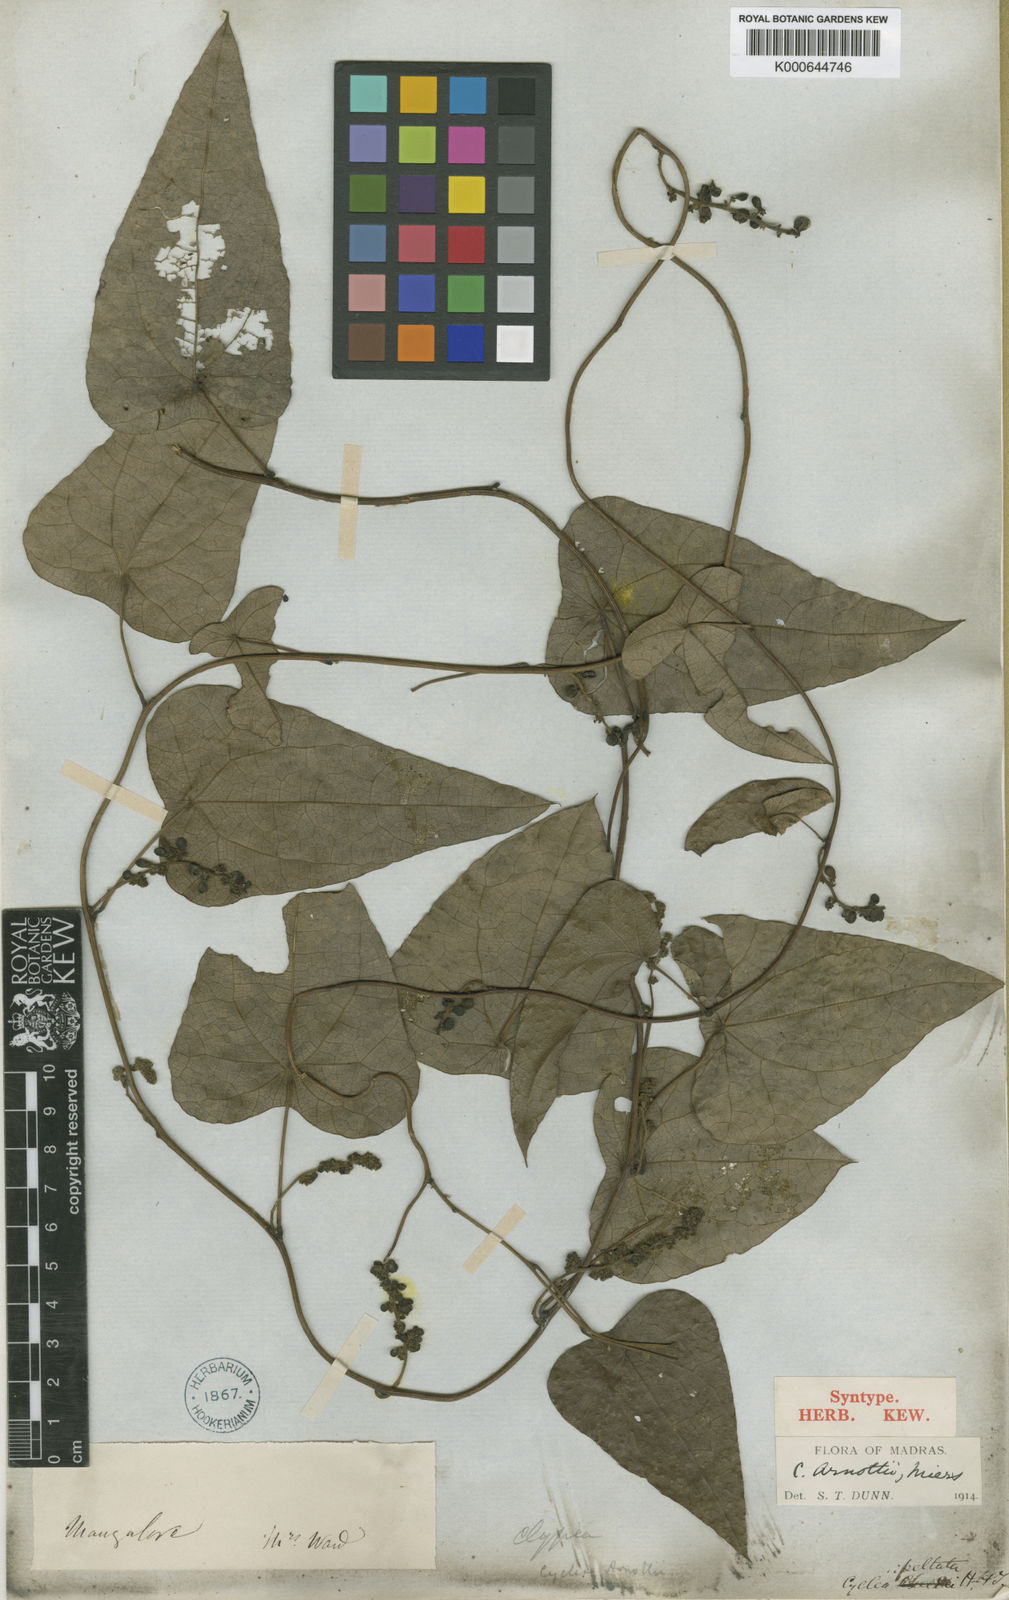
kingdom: Plantae
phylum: Tracheophyta
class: Magnoliopsida
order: Ranunculales
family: Menispermaceae
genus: Cyclea
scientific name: Cyclea peltata
